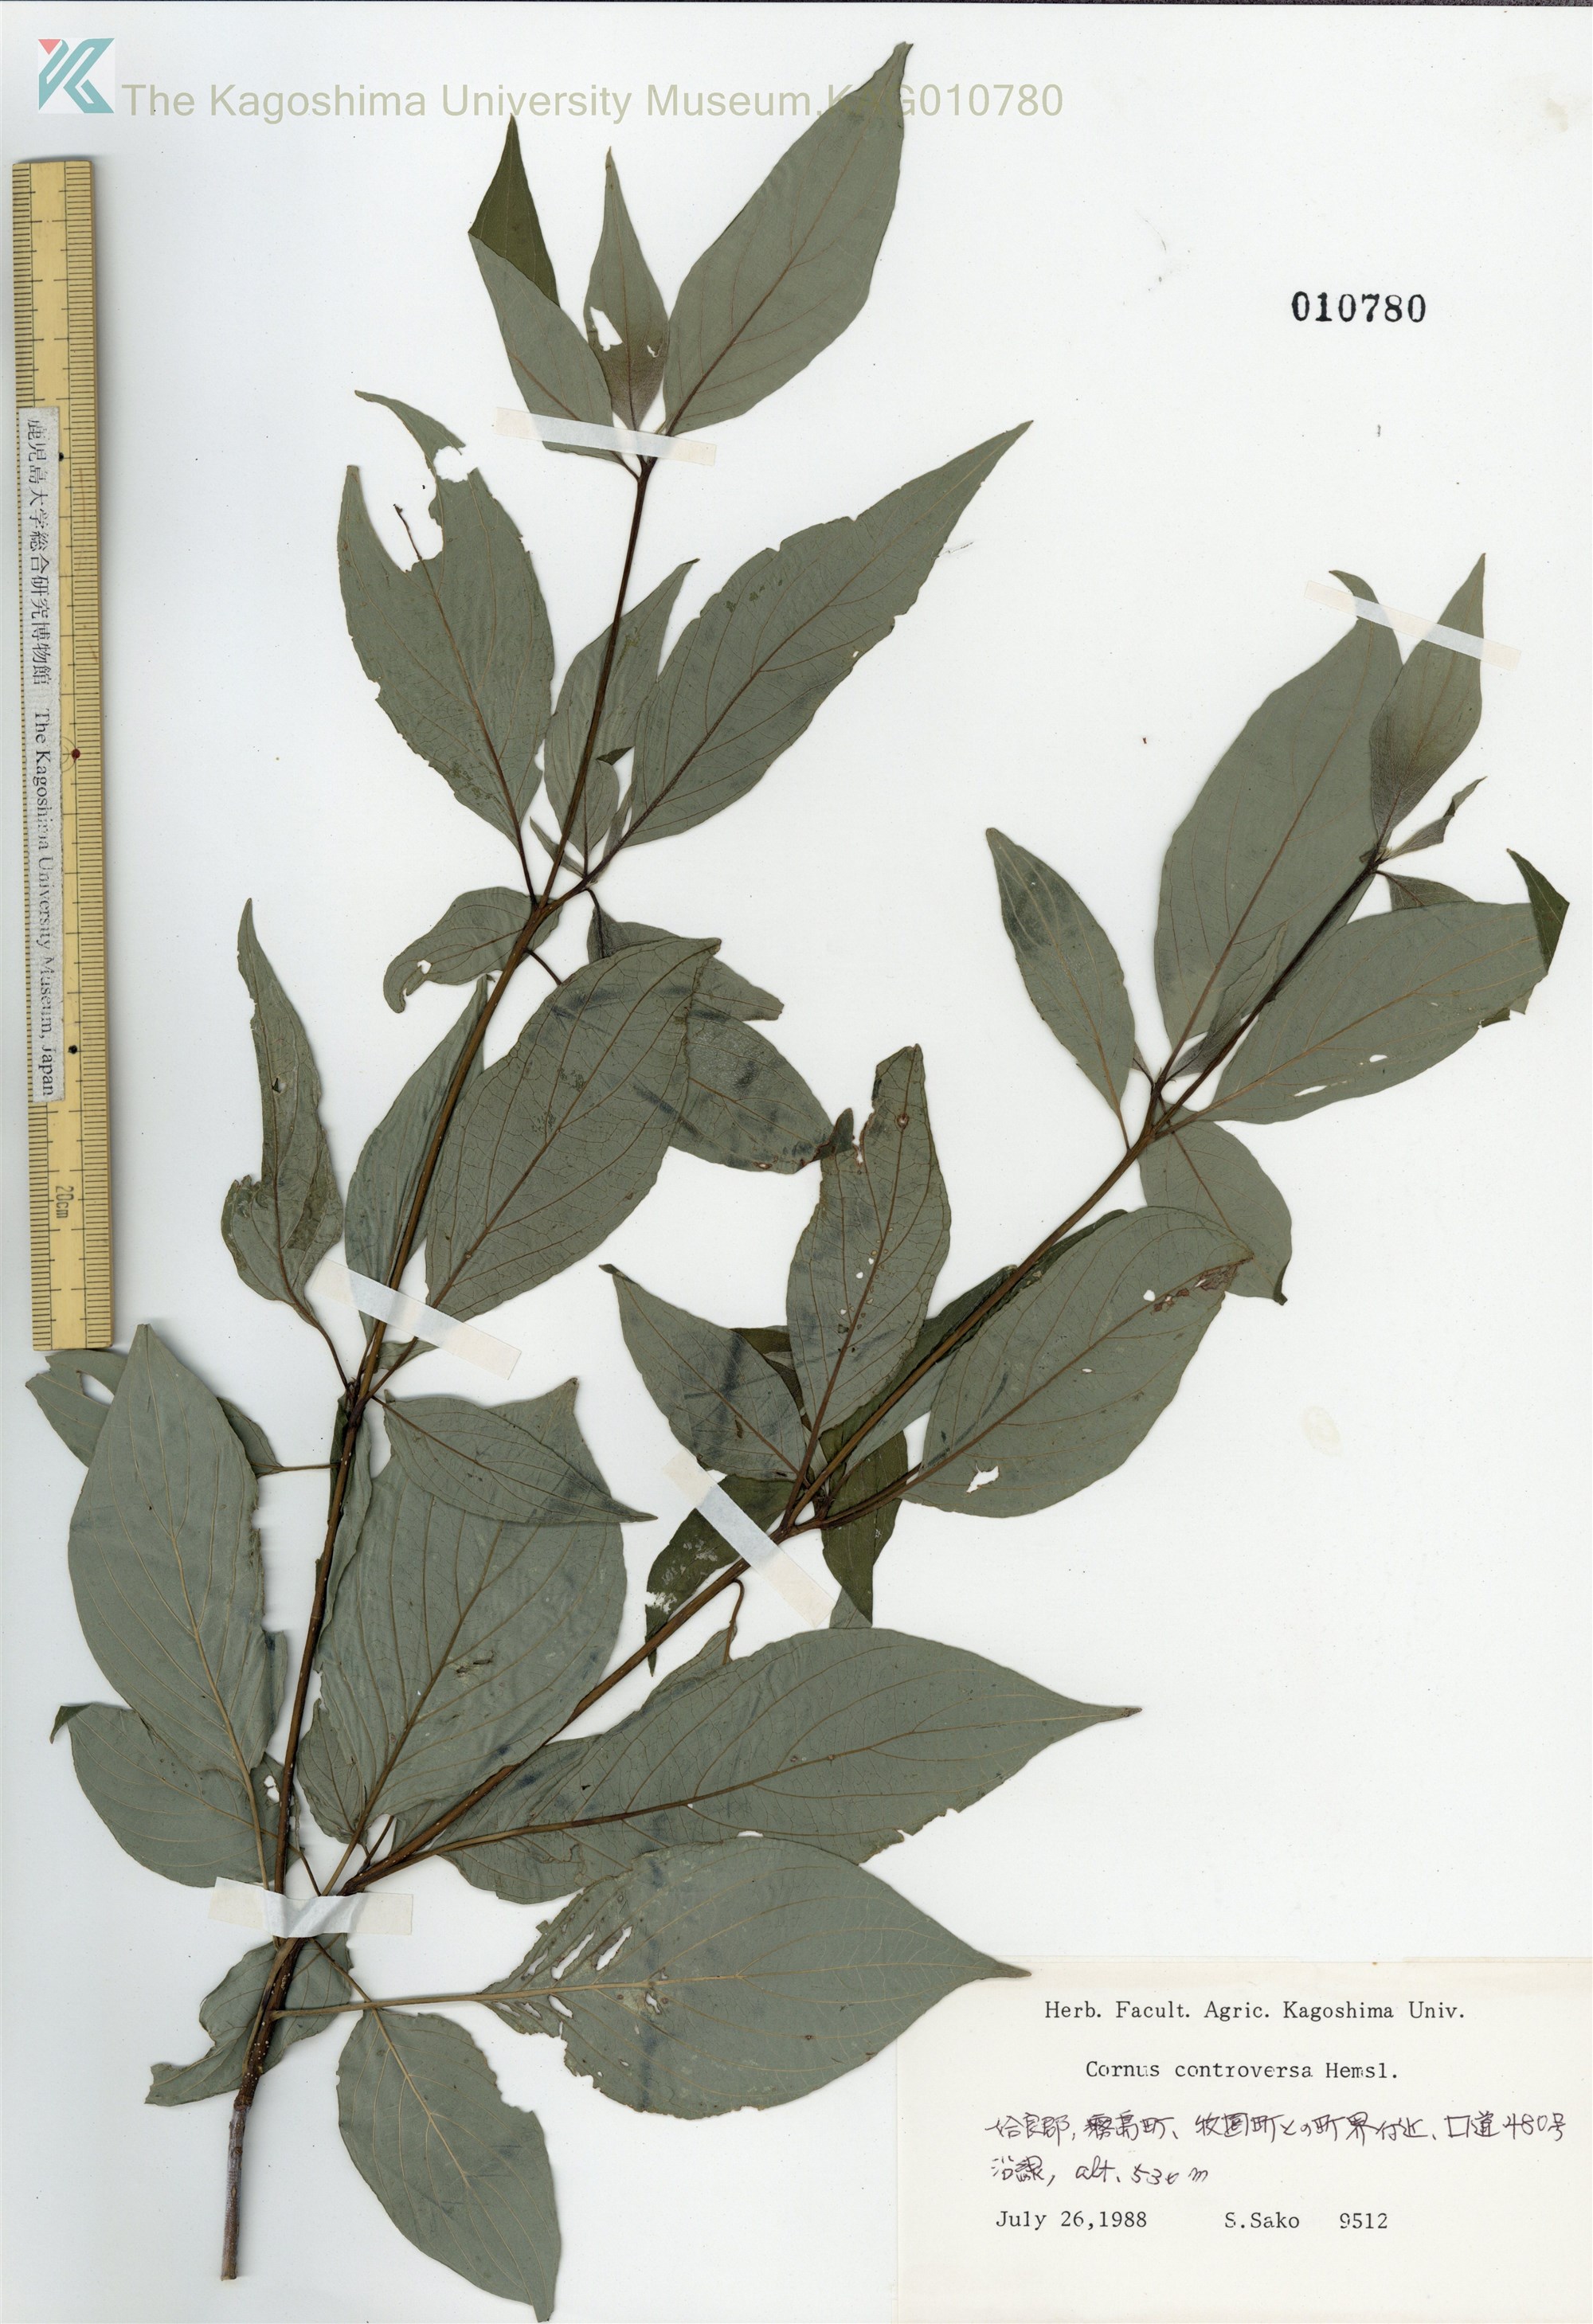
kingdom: Plantae
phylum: Tracheophyta
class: Magnoliopsida
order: Cornales
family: Cornaceae
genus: Cornus
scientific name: Cornus controversa
